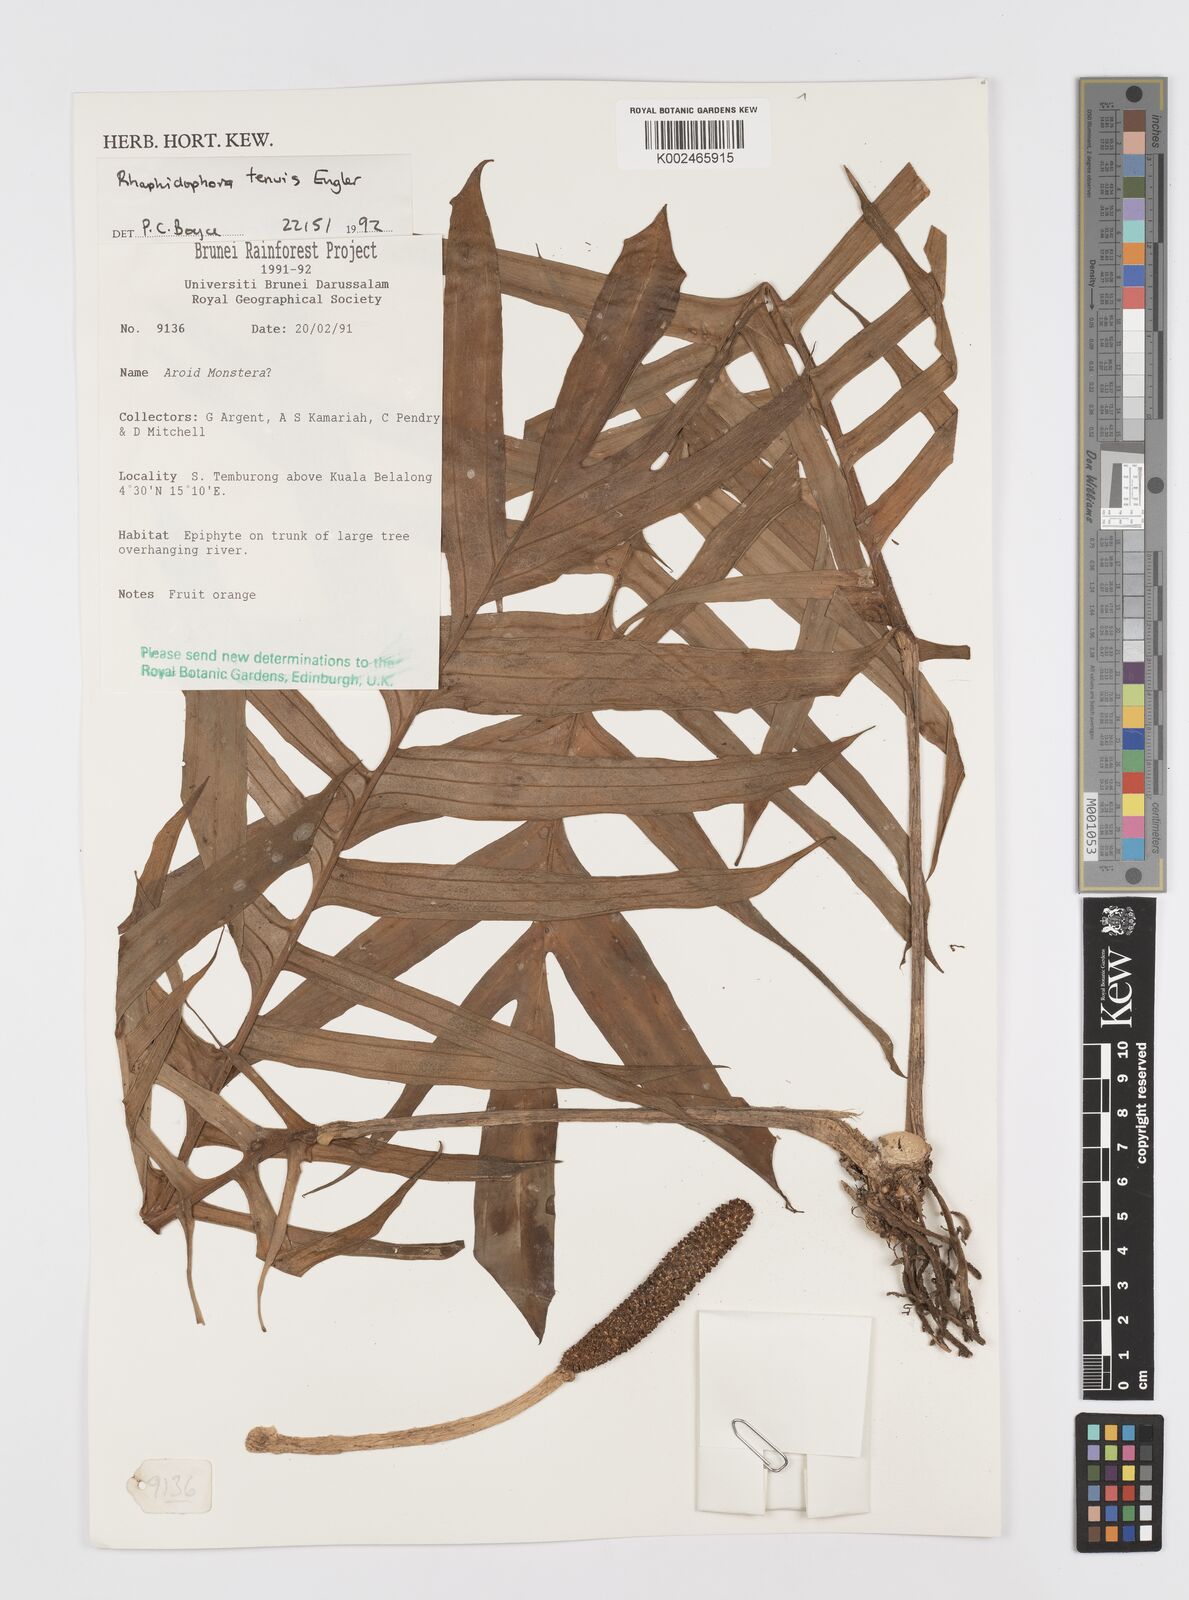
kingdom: Plantae
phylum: Tracheophyta
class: Liliopsida
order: Alismatales
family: Araceae
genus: Rhaphidophora
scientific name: Rhaphidophora korthalsii
